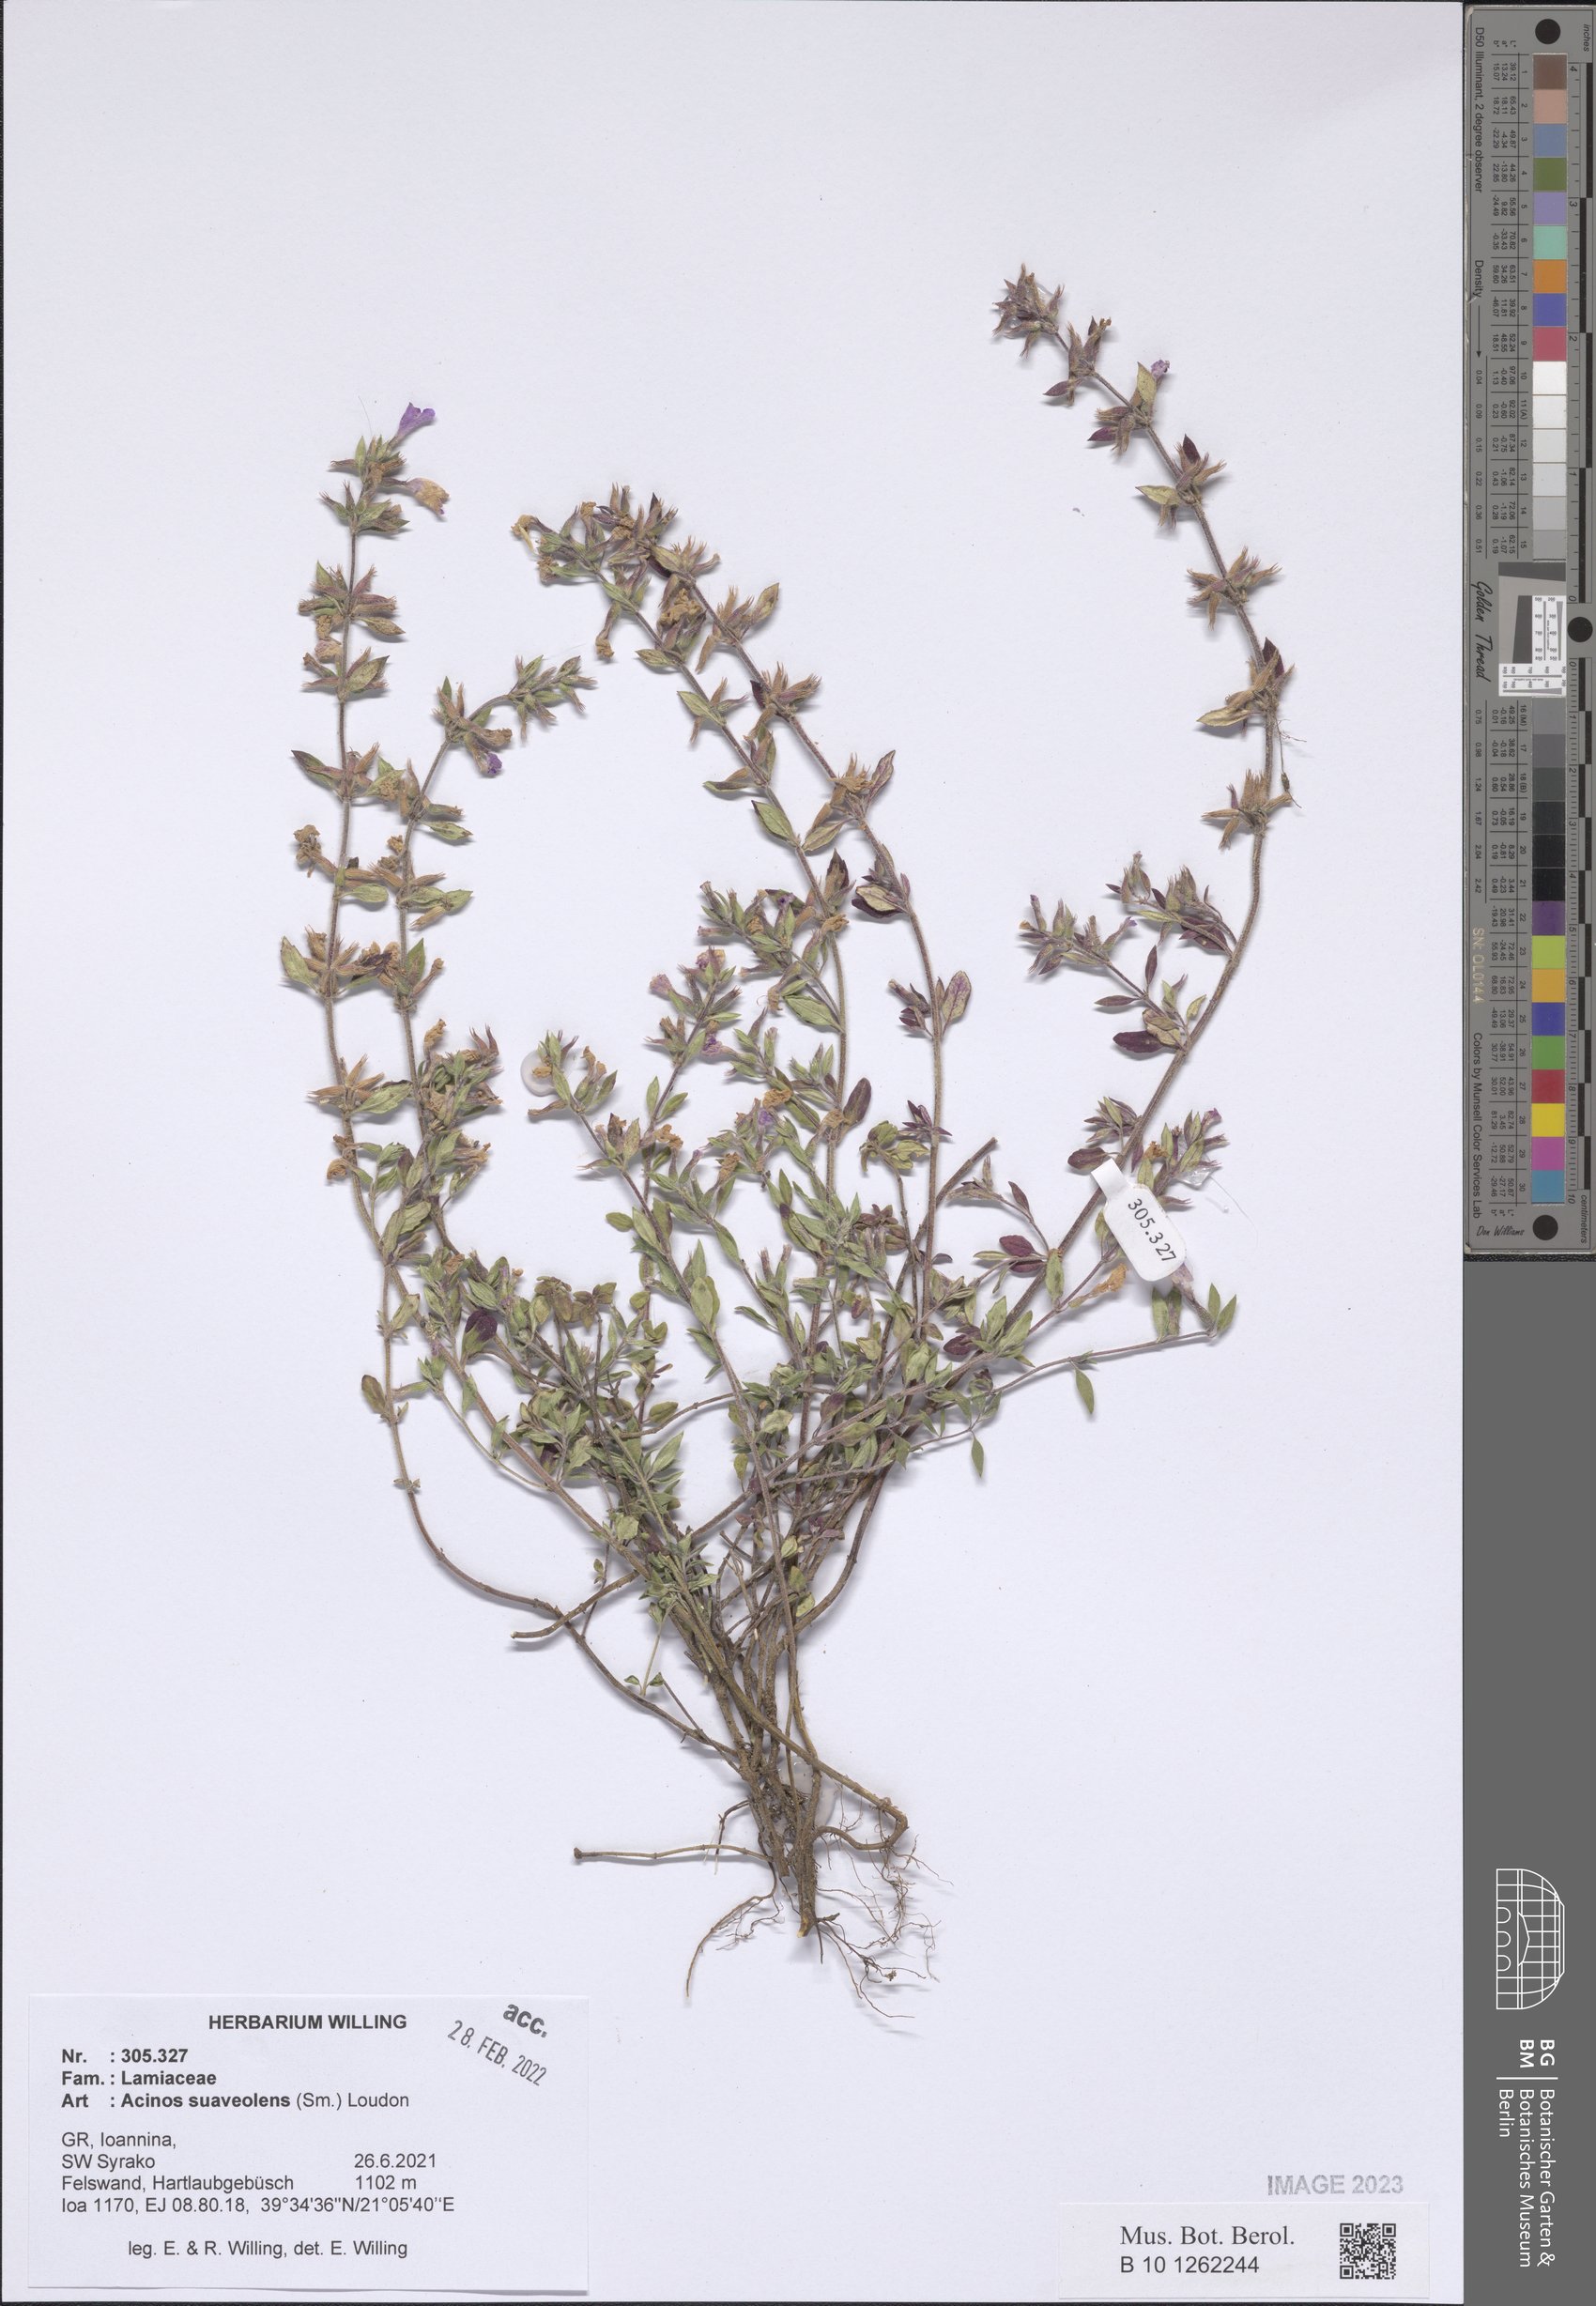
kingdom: Plantae
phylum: Tracheophyta
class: Magnoliopsida
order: Lamiales
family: Lamiaceae
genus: Clinopodium
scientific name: Clinopodium suaveolens
